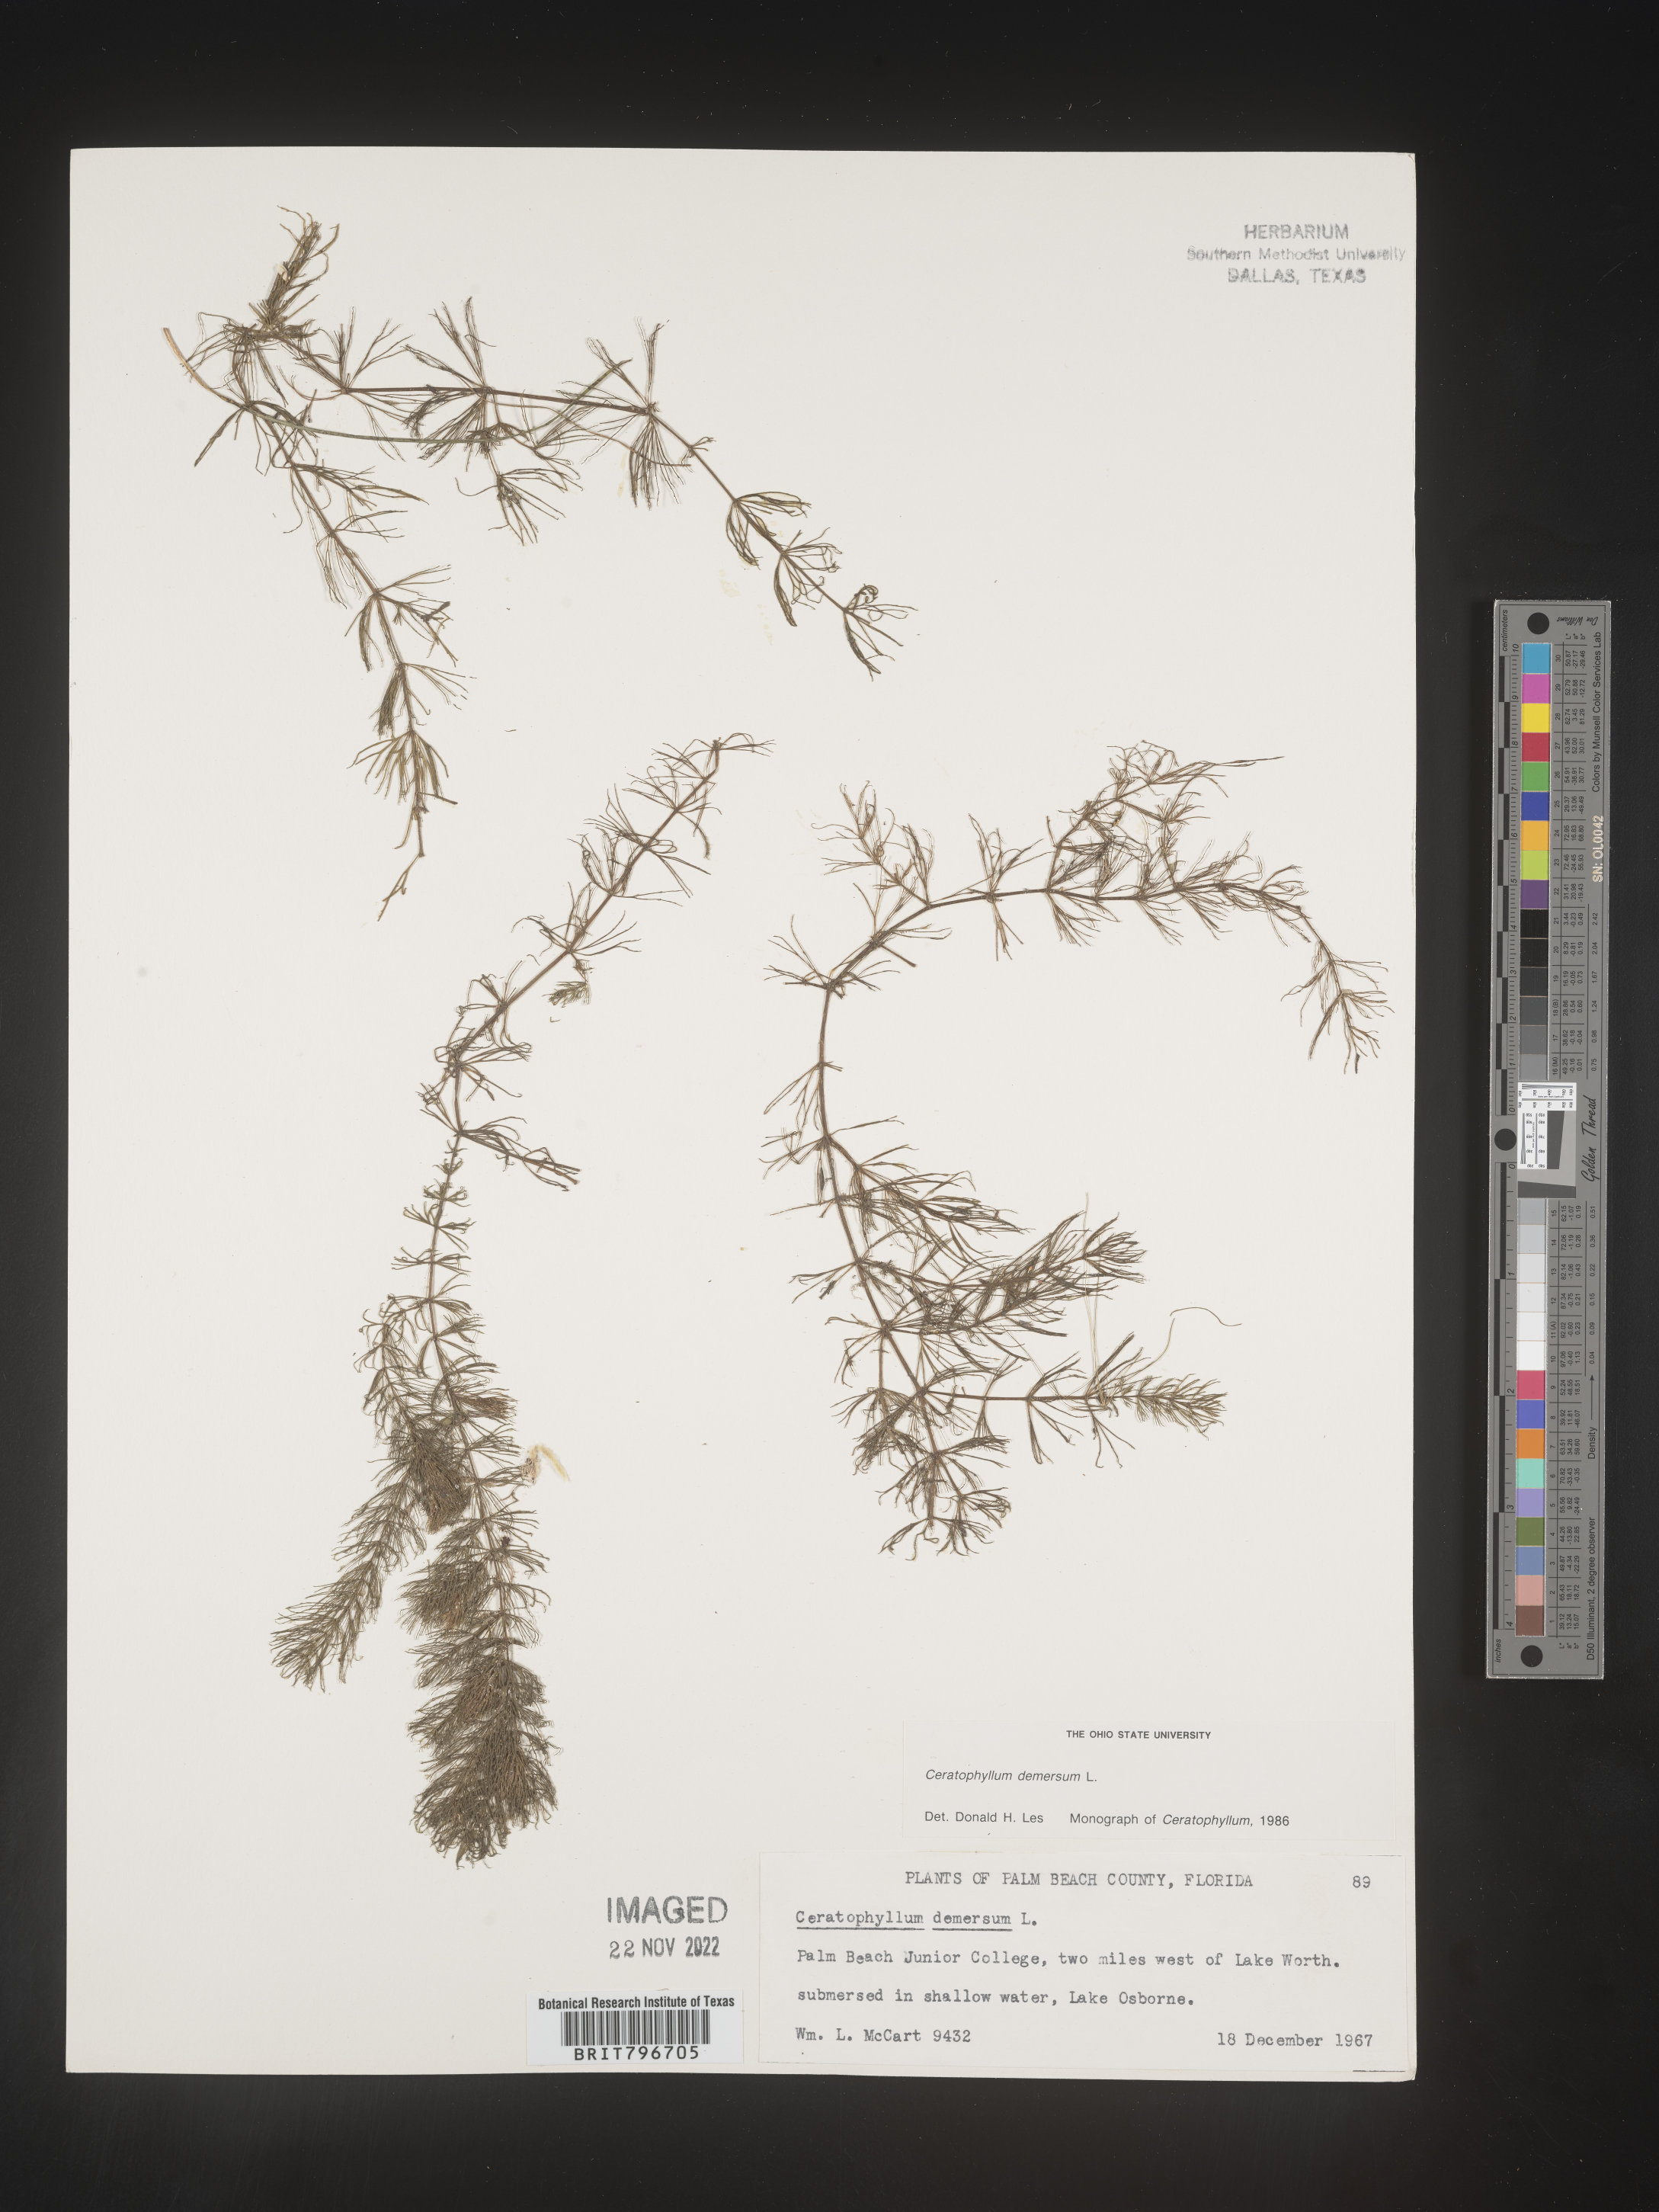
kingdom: Plantae
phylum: Tracheophyta
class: Magnoliopsida
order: Ceratophyllales
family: Ceratophyllaceae
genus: Ceratophyllum
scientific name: Ceratophyllum demersum
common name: Rigid hornwort
